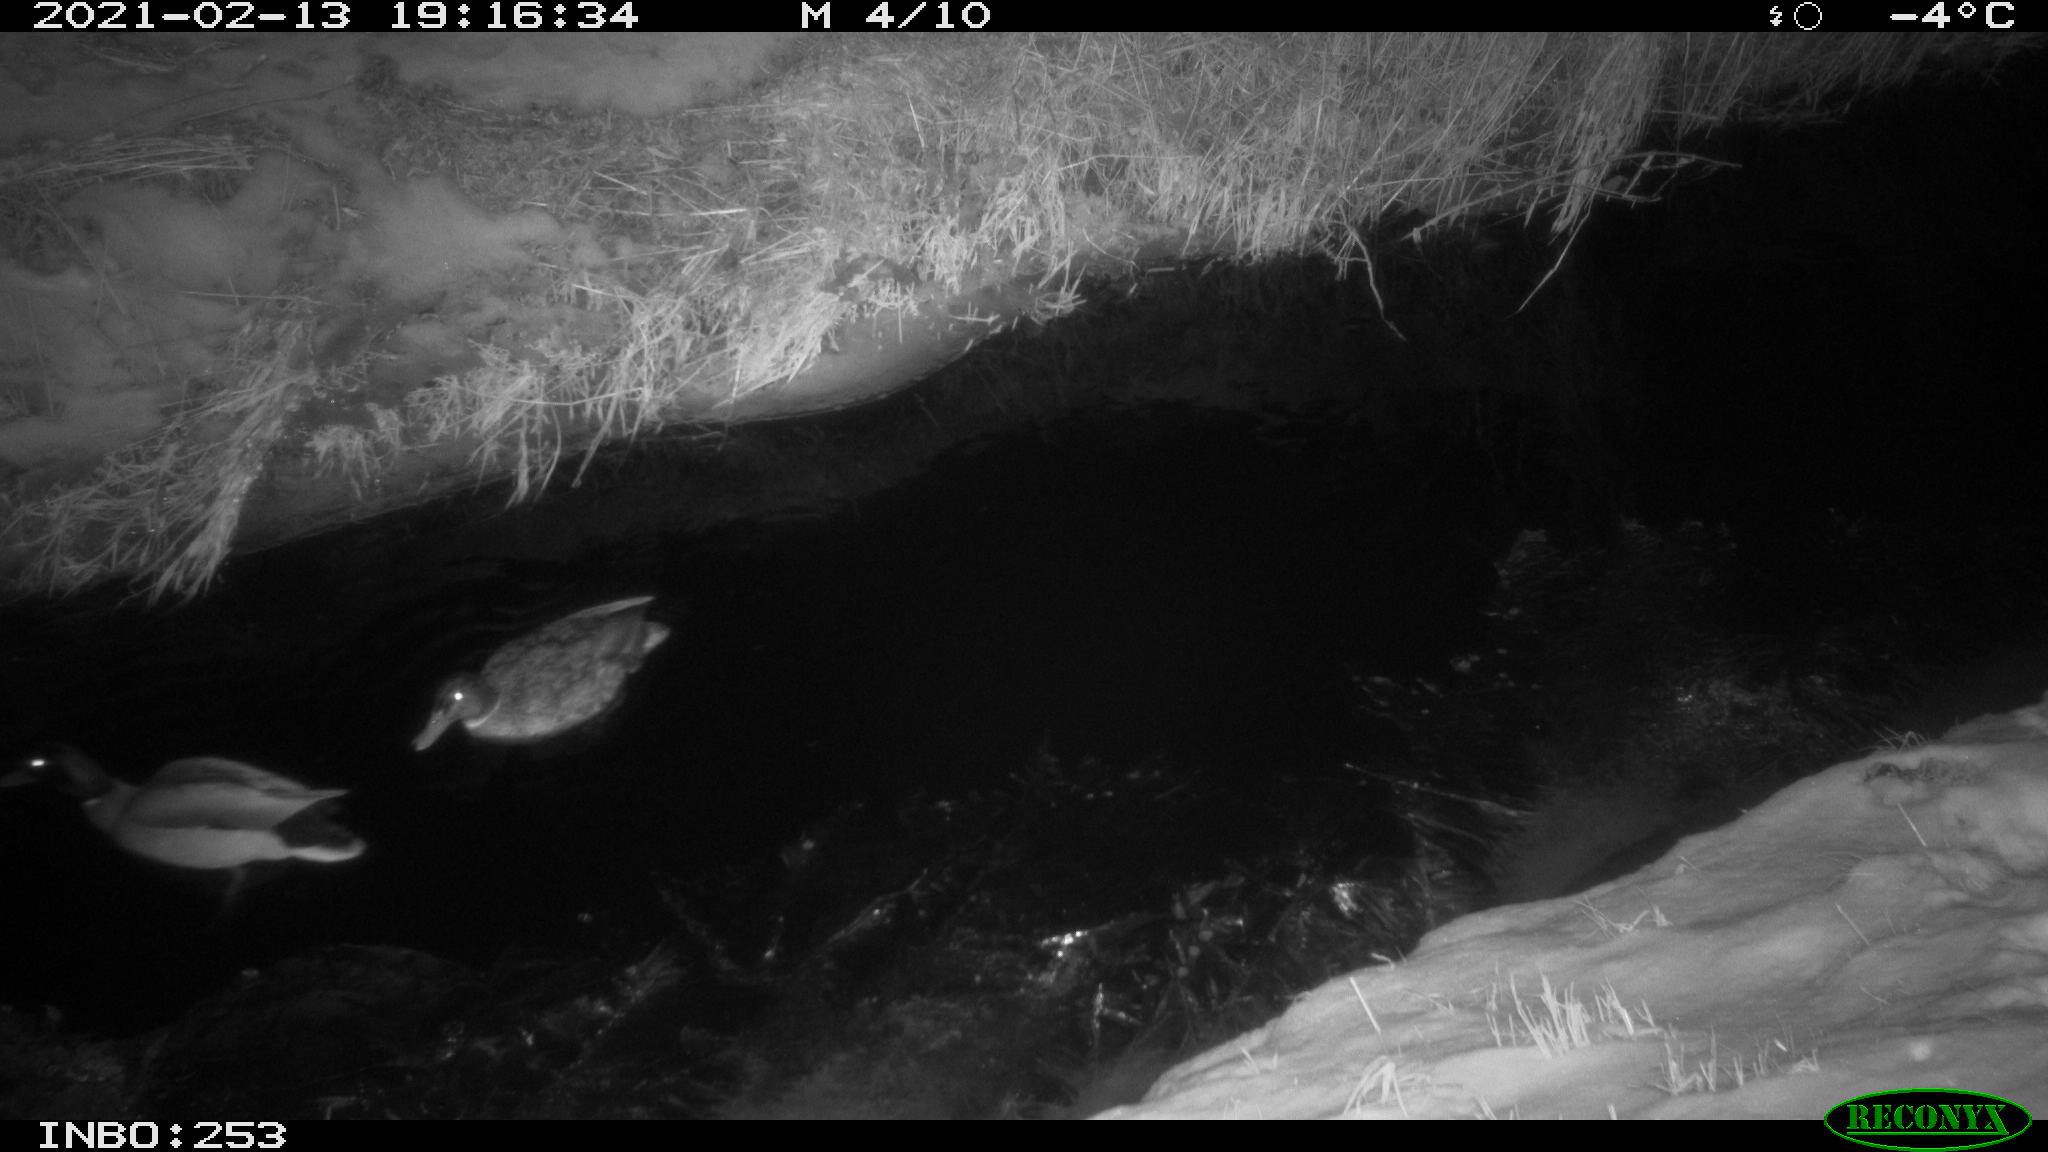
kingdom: Animalia
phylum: Chordata
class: Aves
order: Anseriformes
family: Anatidae
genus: Anas
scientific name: Anas platyrhynchos
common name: Mallard
